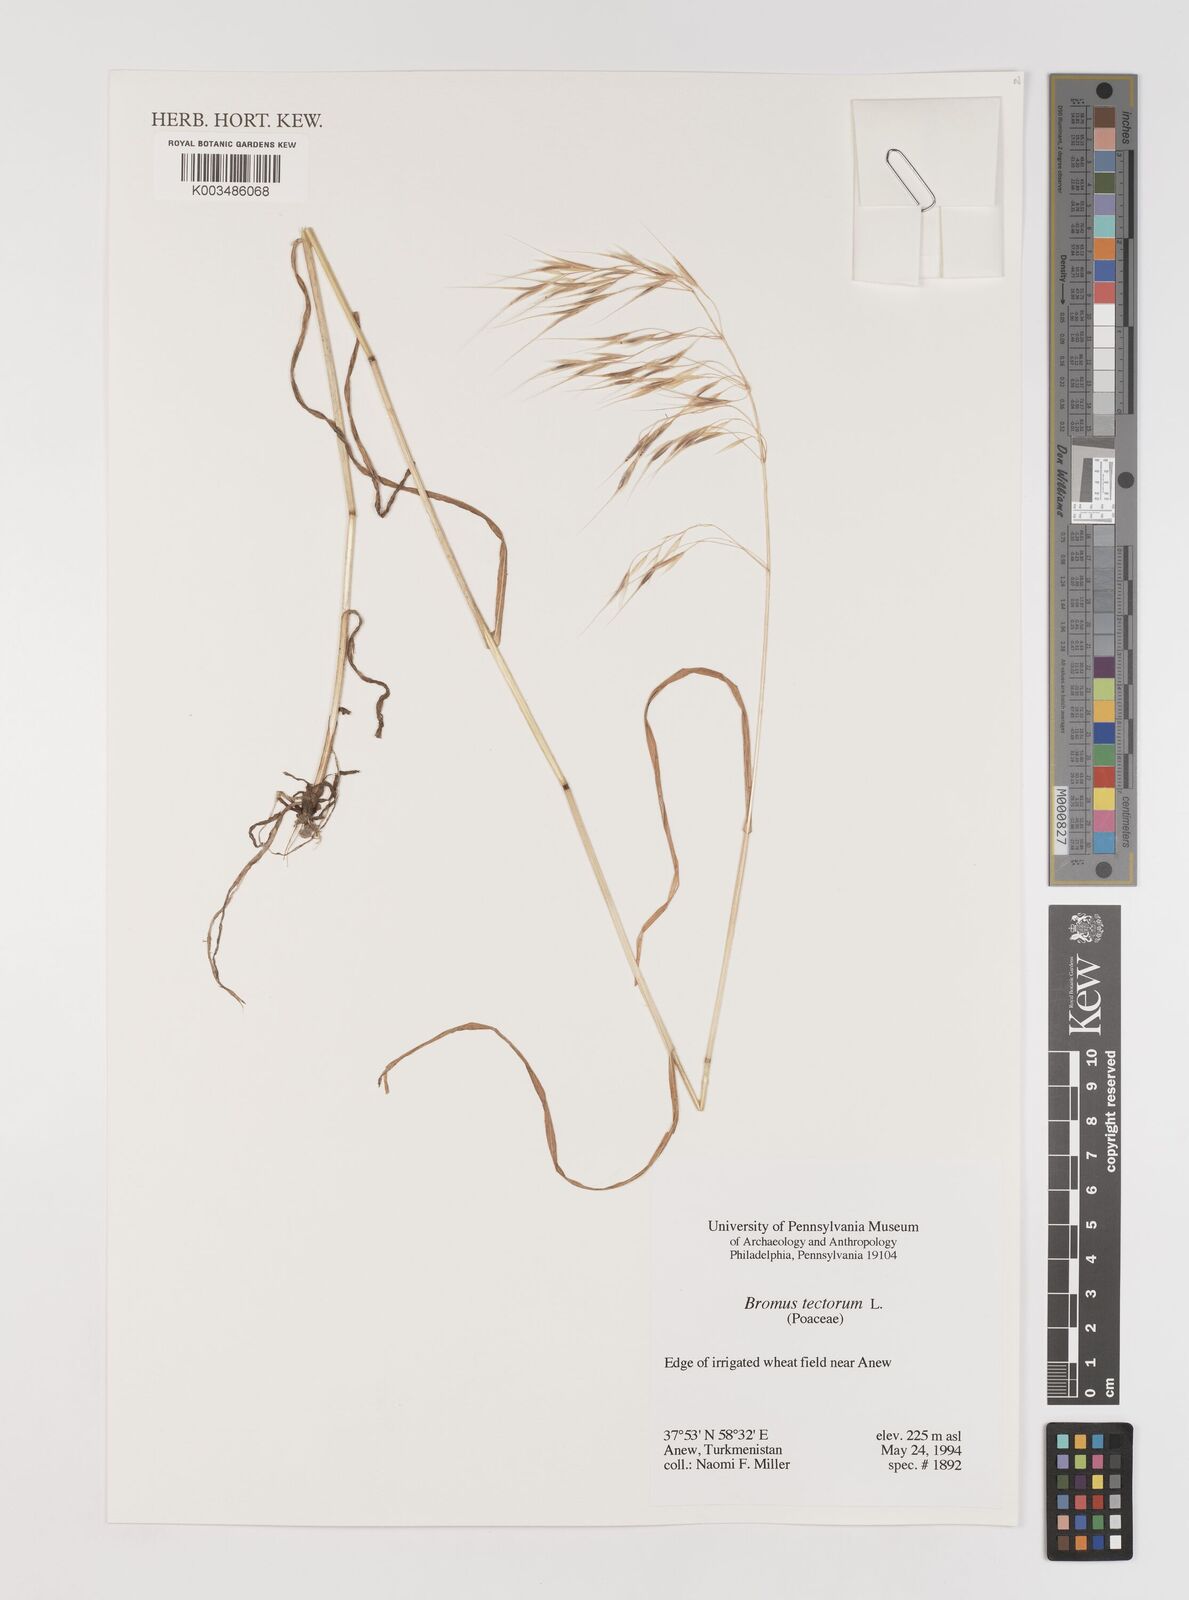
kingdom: Plantae
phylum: Tracheophyta
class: Liliopsida
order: Poales
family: Poaceae
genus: Bromus
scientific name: Bromus tectorum
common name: Cheatgrass
